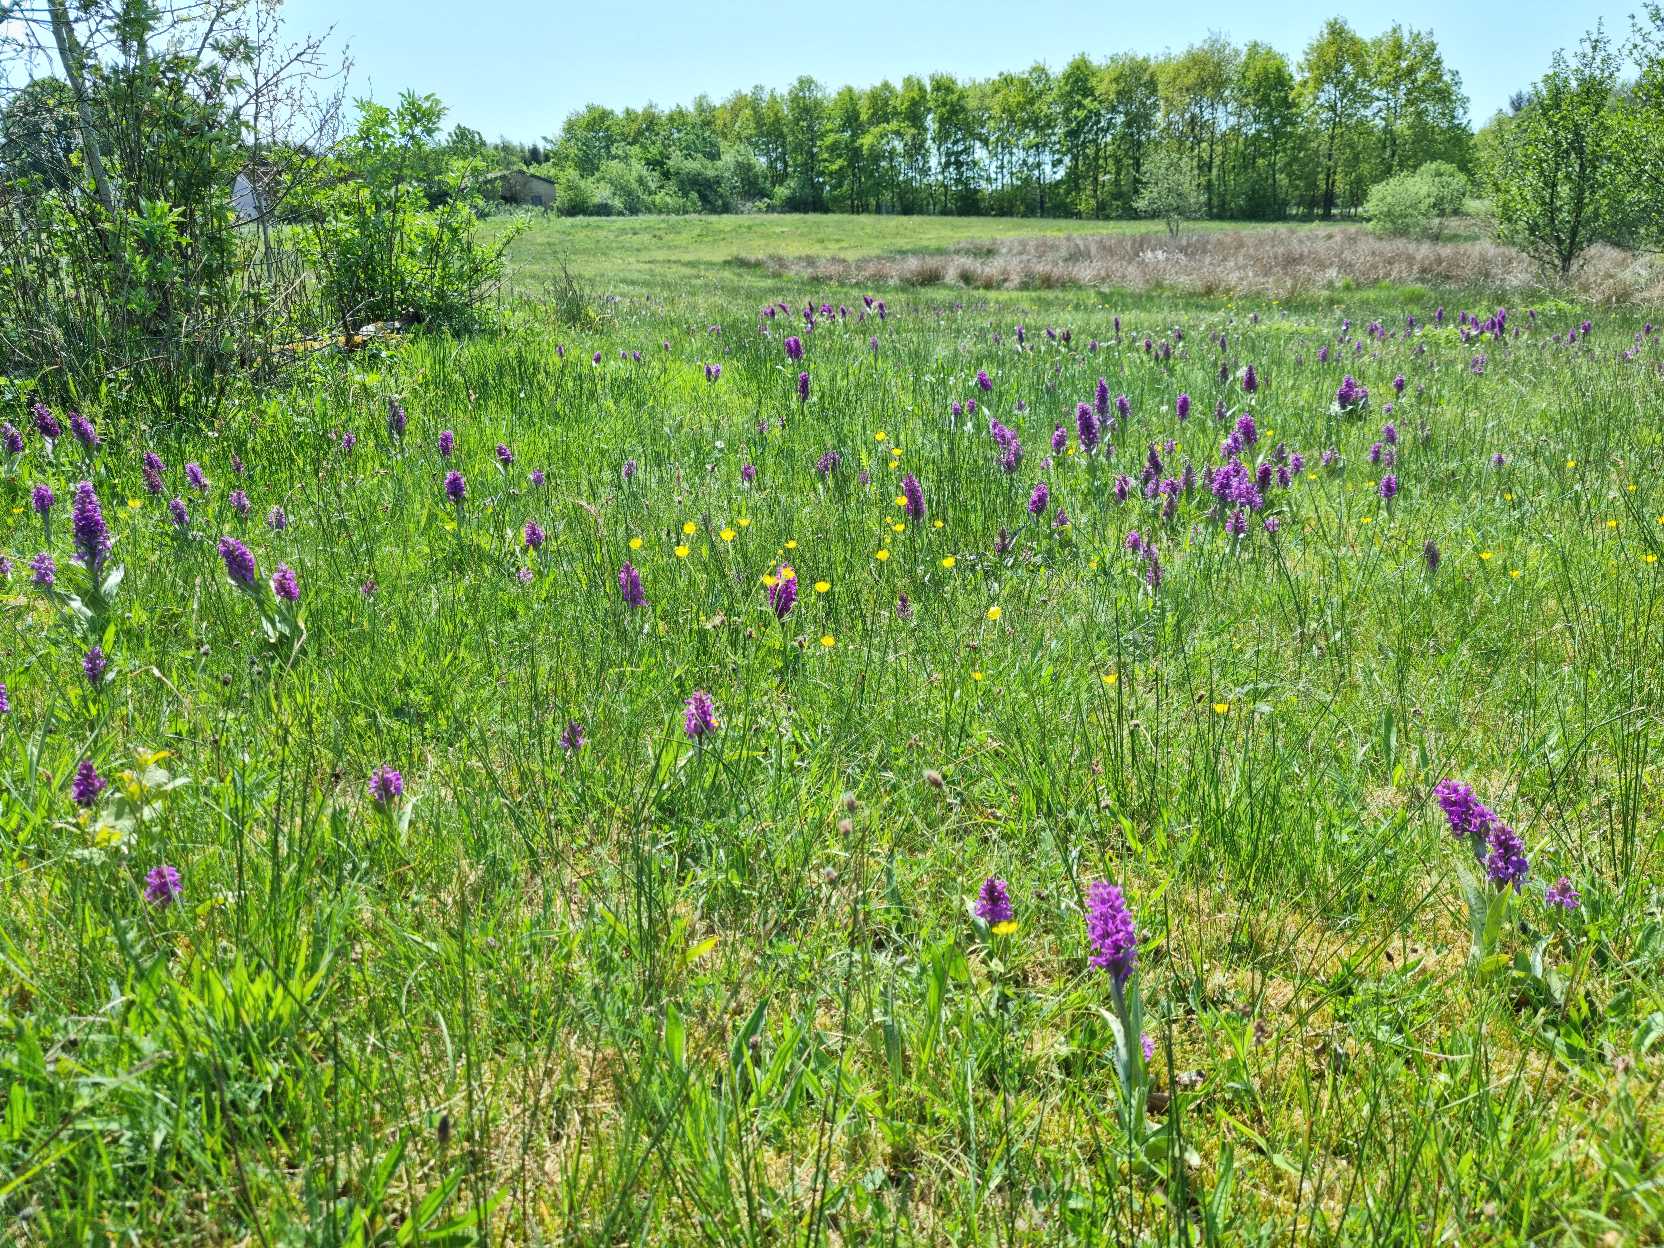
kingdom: Plantae
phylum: Tracheophyta
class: Liliopsida
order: Asparagales
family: Orchidaceae
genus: Dactylorhiza
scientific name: Dactylorhiza majalis
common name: Maj-gøgeurt
